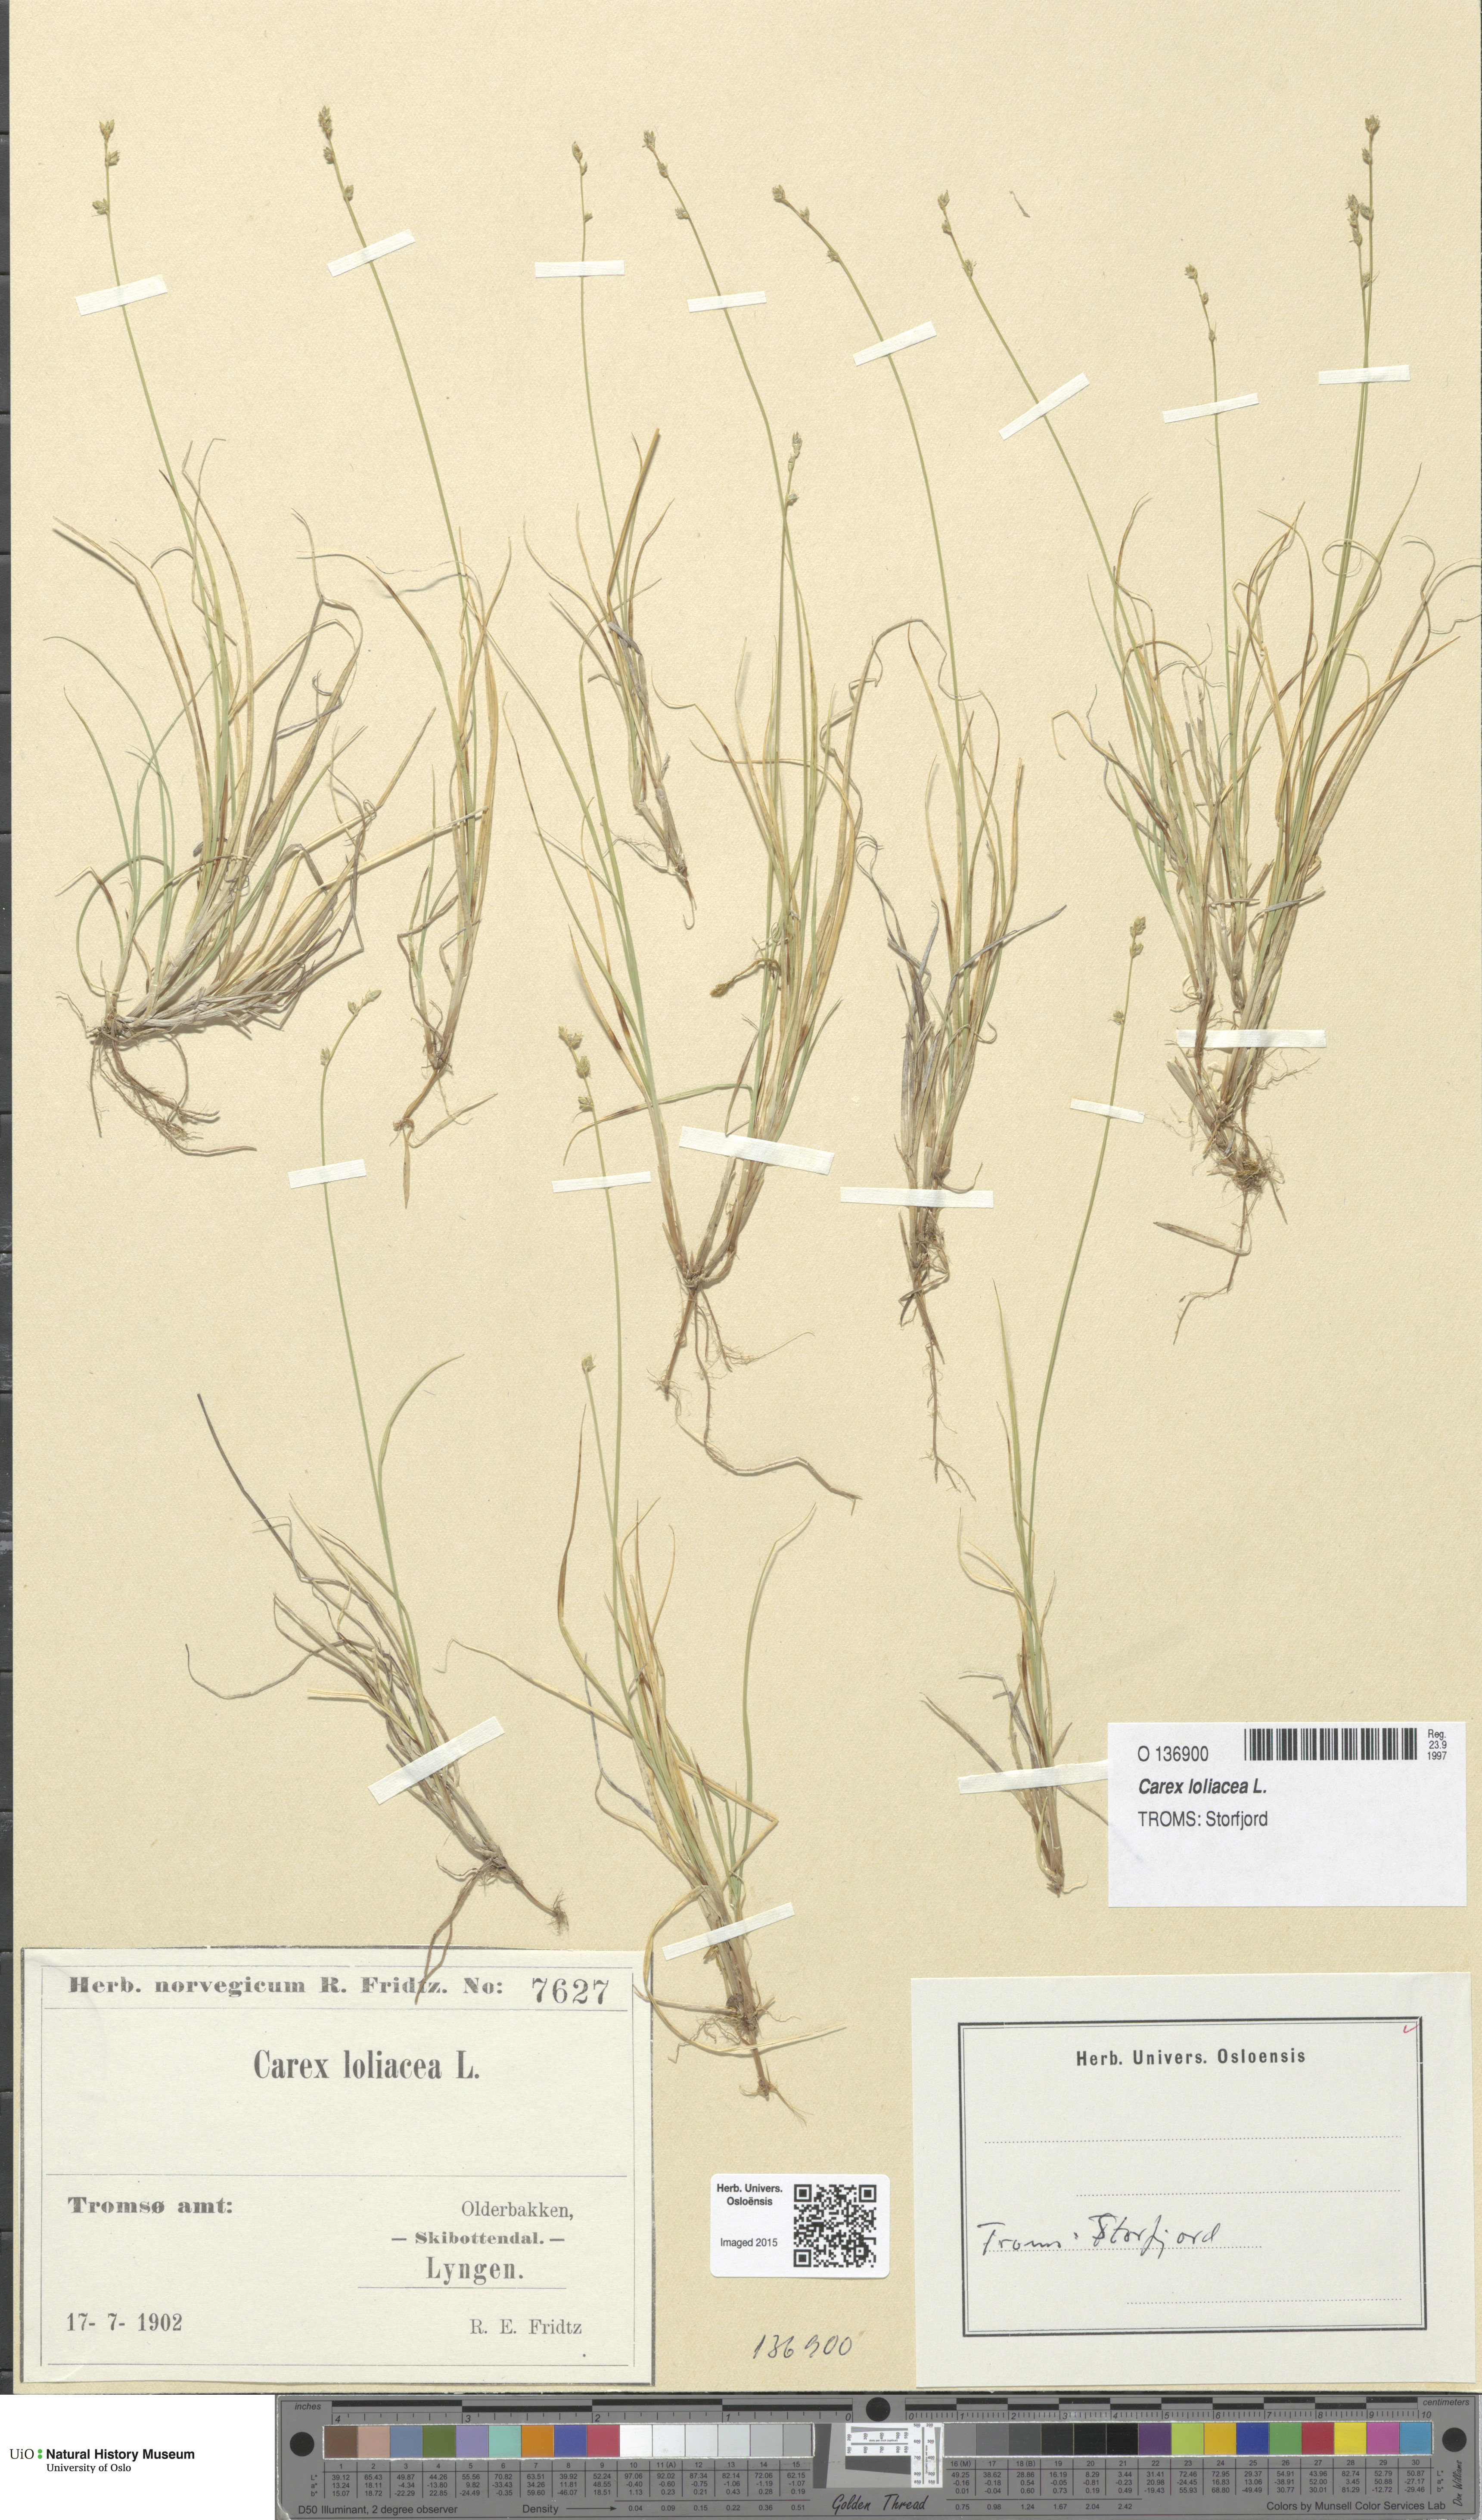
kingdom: Plantae
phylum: Tracheophyta
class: Liliopsida
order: Poales
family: Cyperaceae
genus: Carex
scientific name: Carex loliacea
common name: Ryegrass sedge
